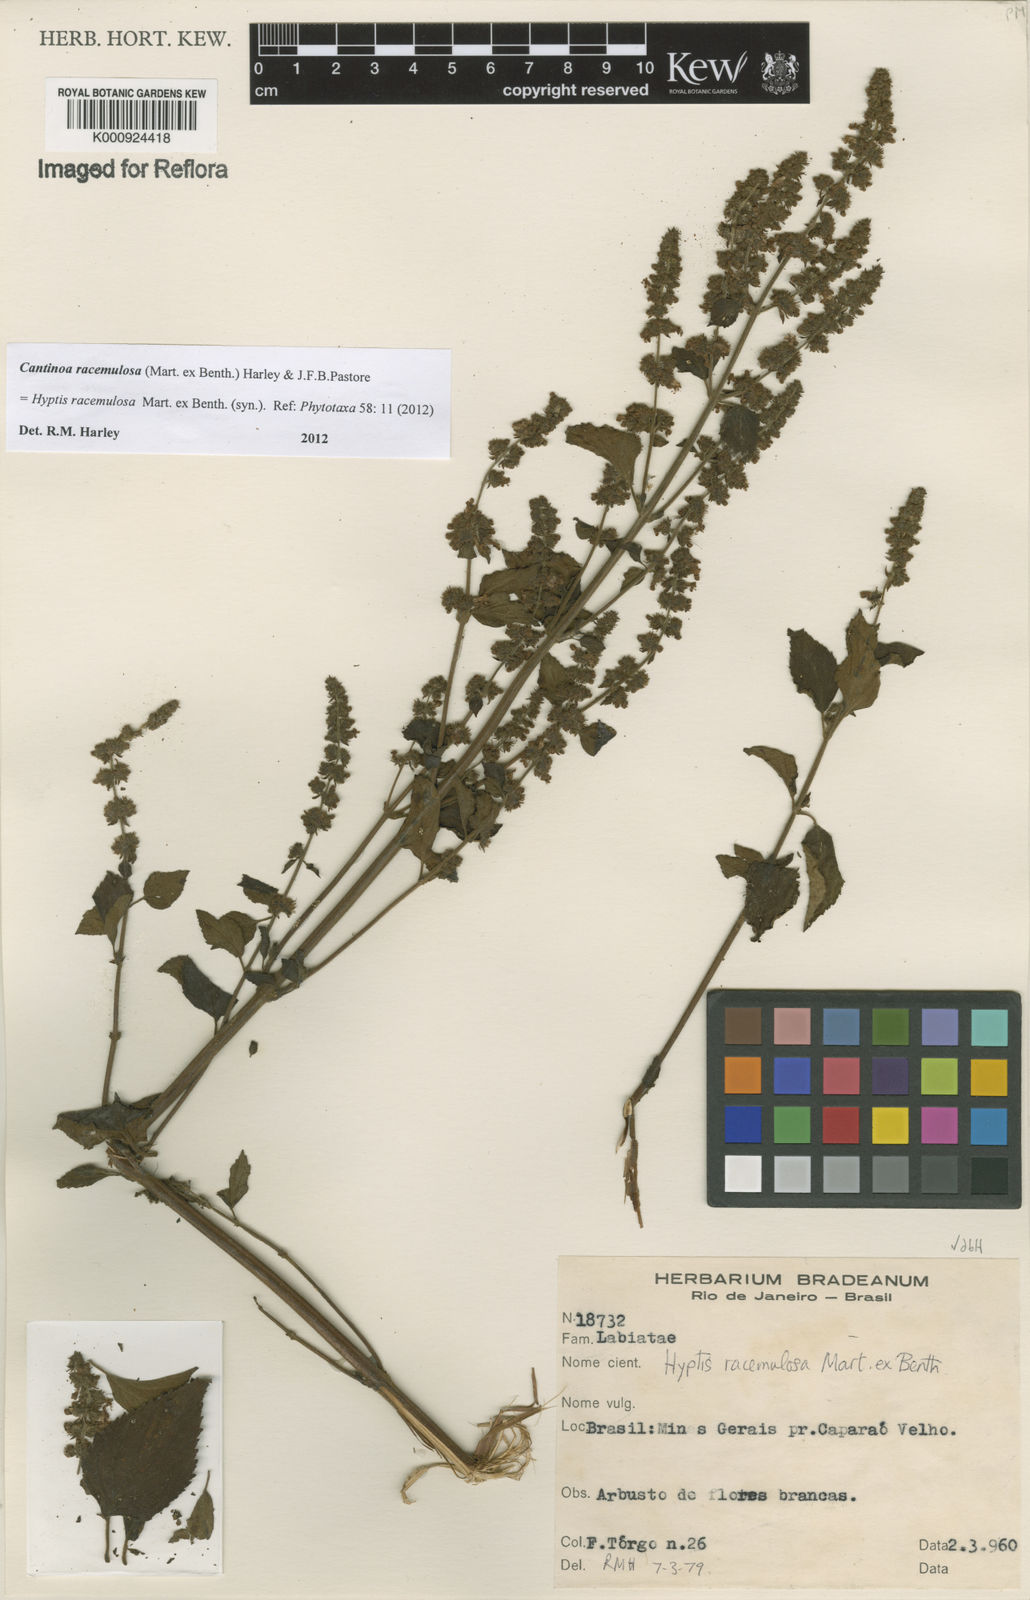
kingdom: Plantae
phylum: Tracheophyta
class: Magnoliopsida
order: Lamiales
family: Lamiaceae
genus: Cantinoa
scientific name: Cantinoa racemulosa
